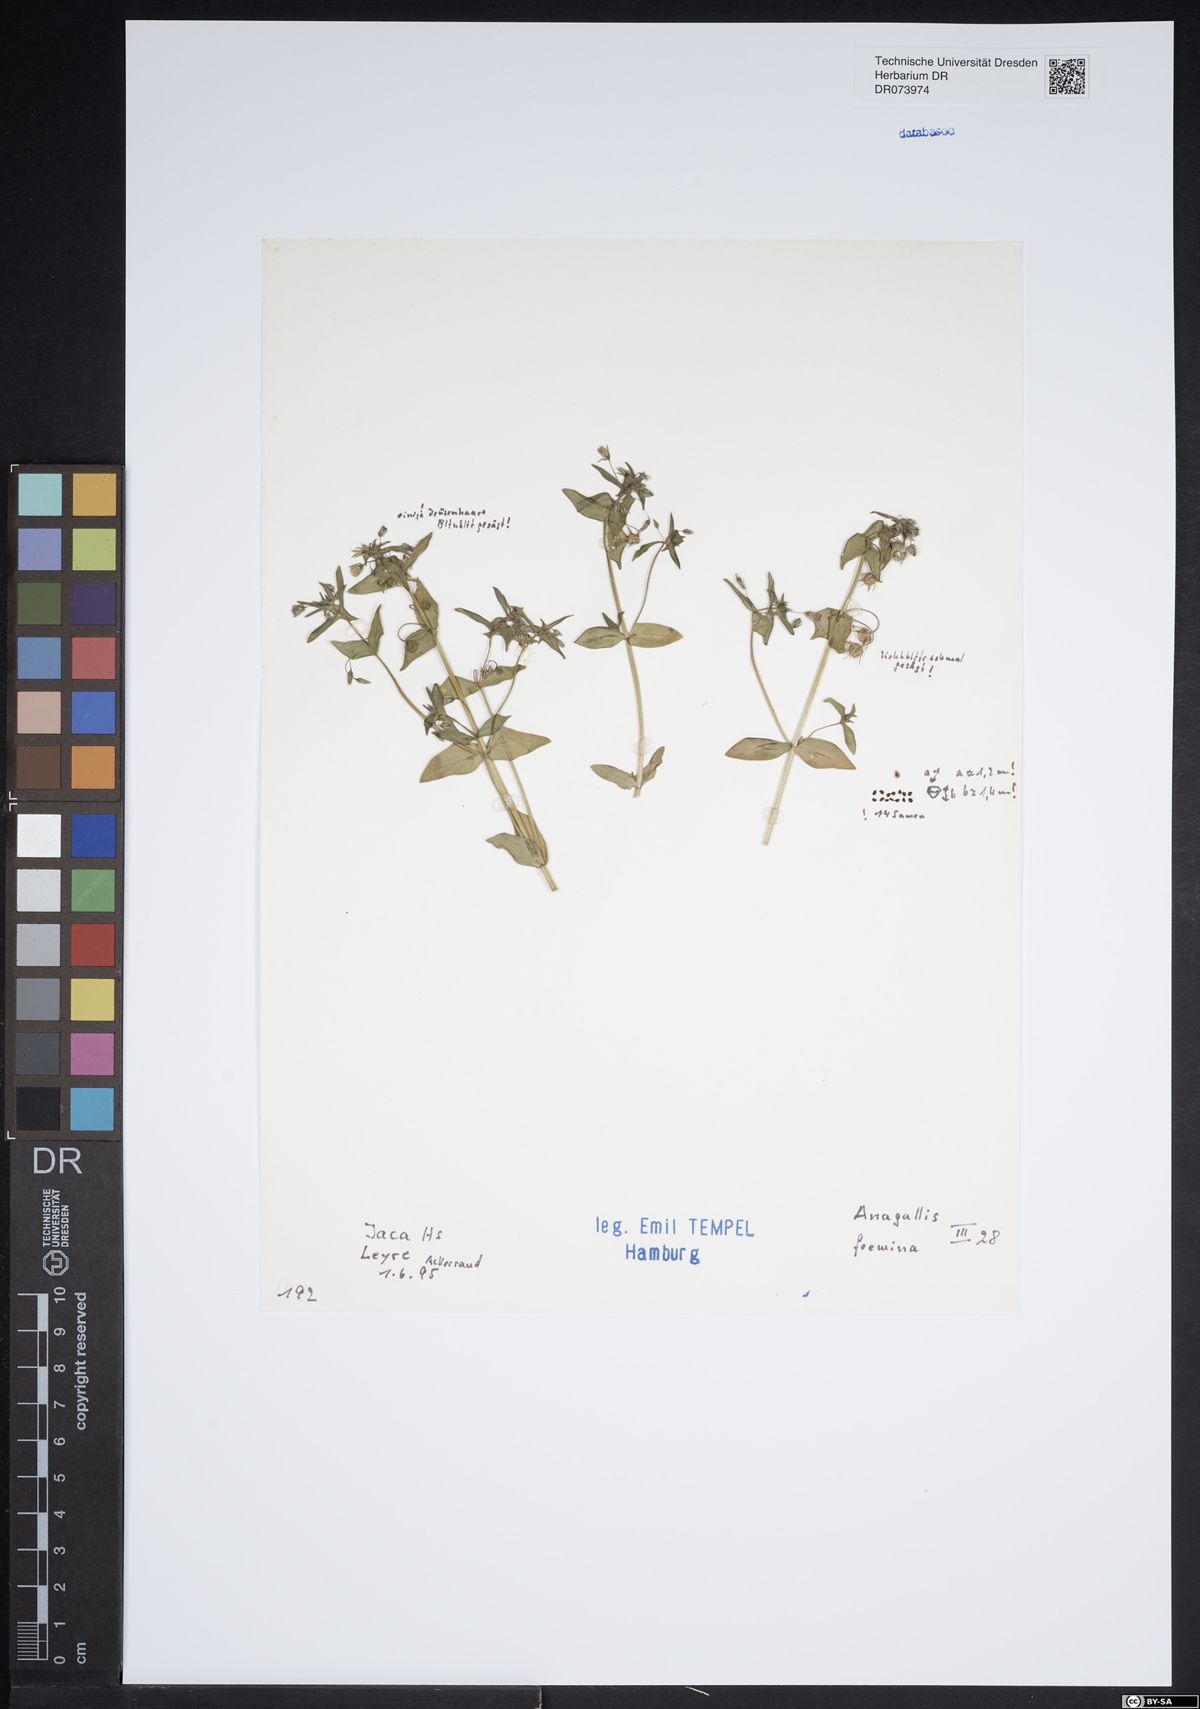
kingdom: Plantae
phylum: Tracheophyta
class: Magnoliopsida
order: Ericales
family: Primulaceae
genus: Lysimachia
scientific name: Lysimachia foemina
